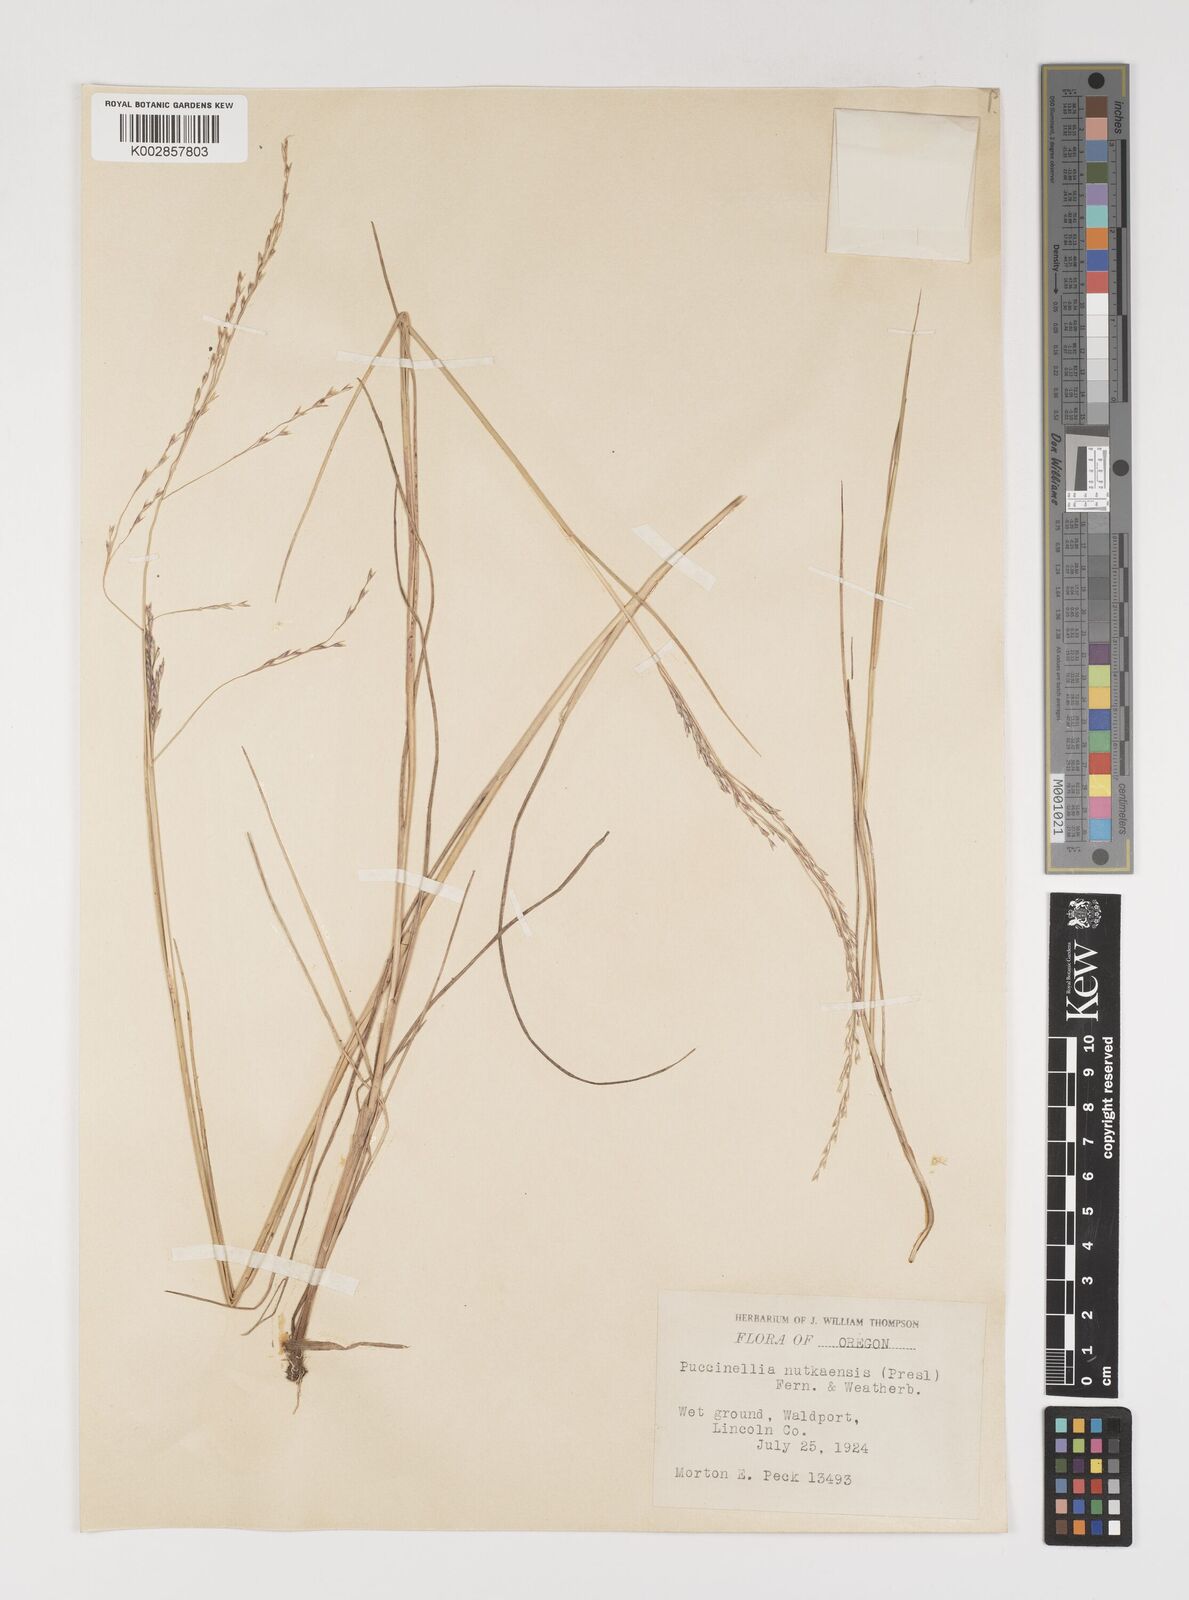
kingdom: Plantae
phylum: Tracheophyta
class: Liliopsida
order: Poales
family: Poaceae
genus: Puccinellia
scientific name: Puccinellia nutkaensis
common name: Nootka alkaligrass
